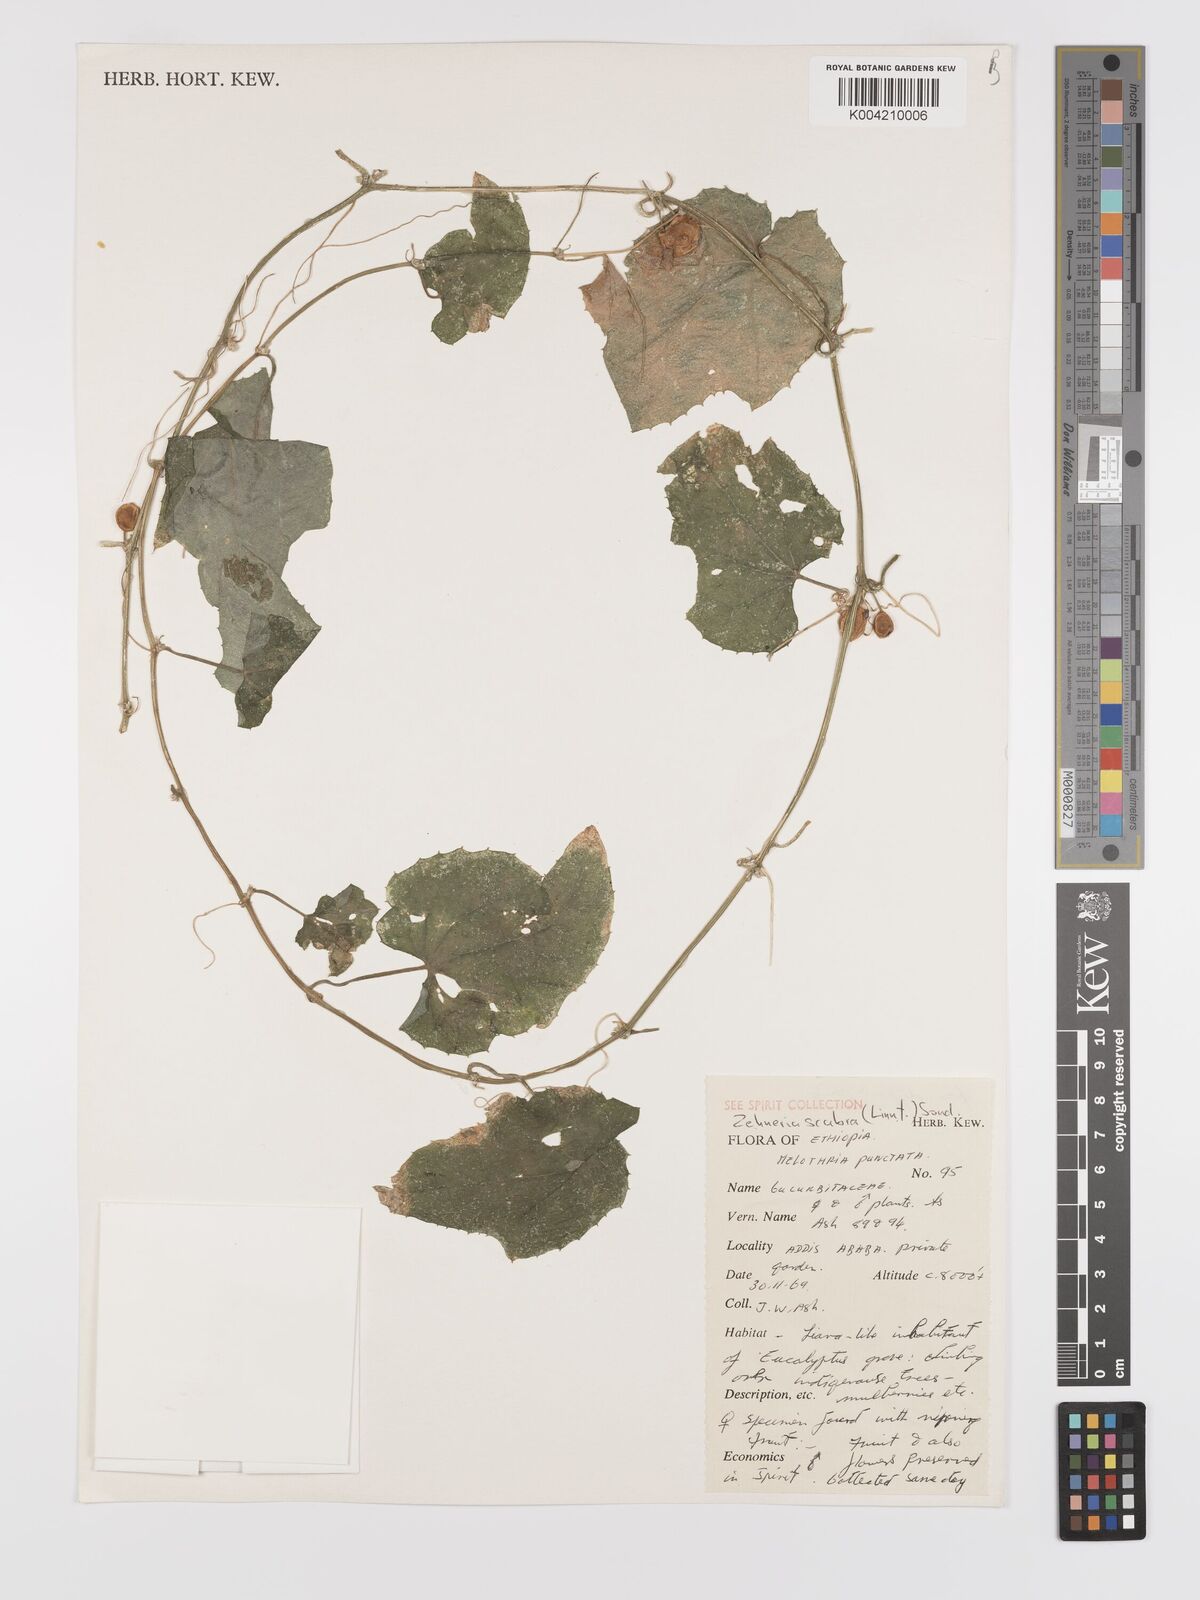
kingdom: Plantae
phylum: Tracheophyta
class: Magnoliopsida
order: Cucurbitales
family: Cucurbitaceae
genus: Zehneria
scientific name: Zehneria scabra
